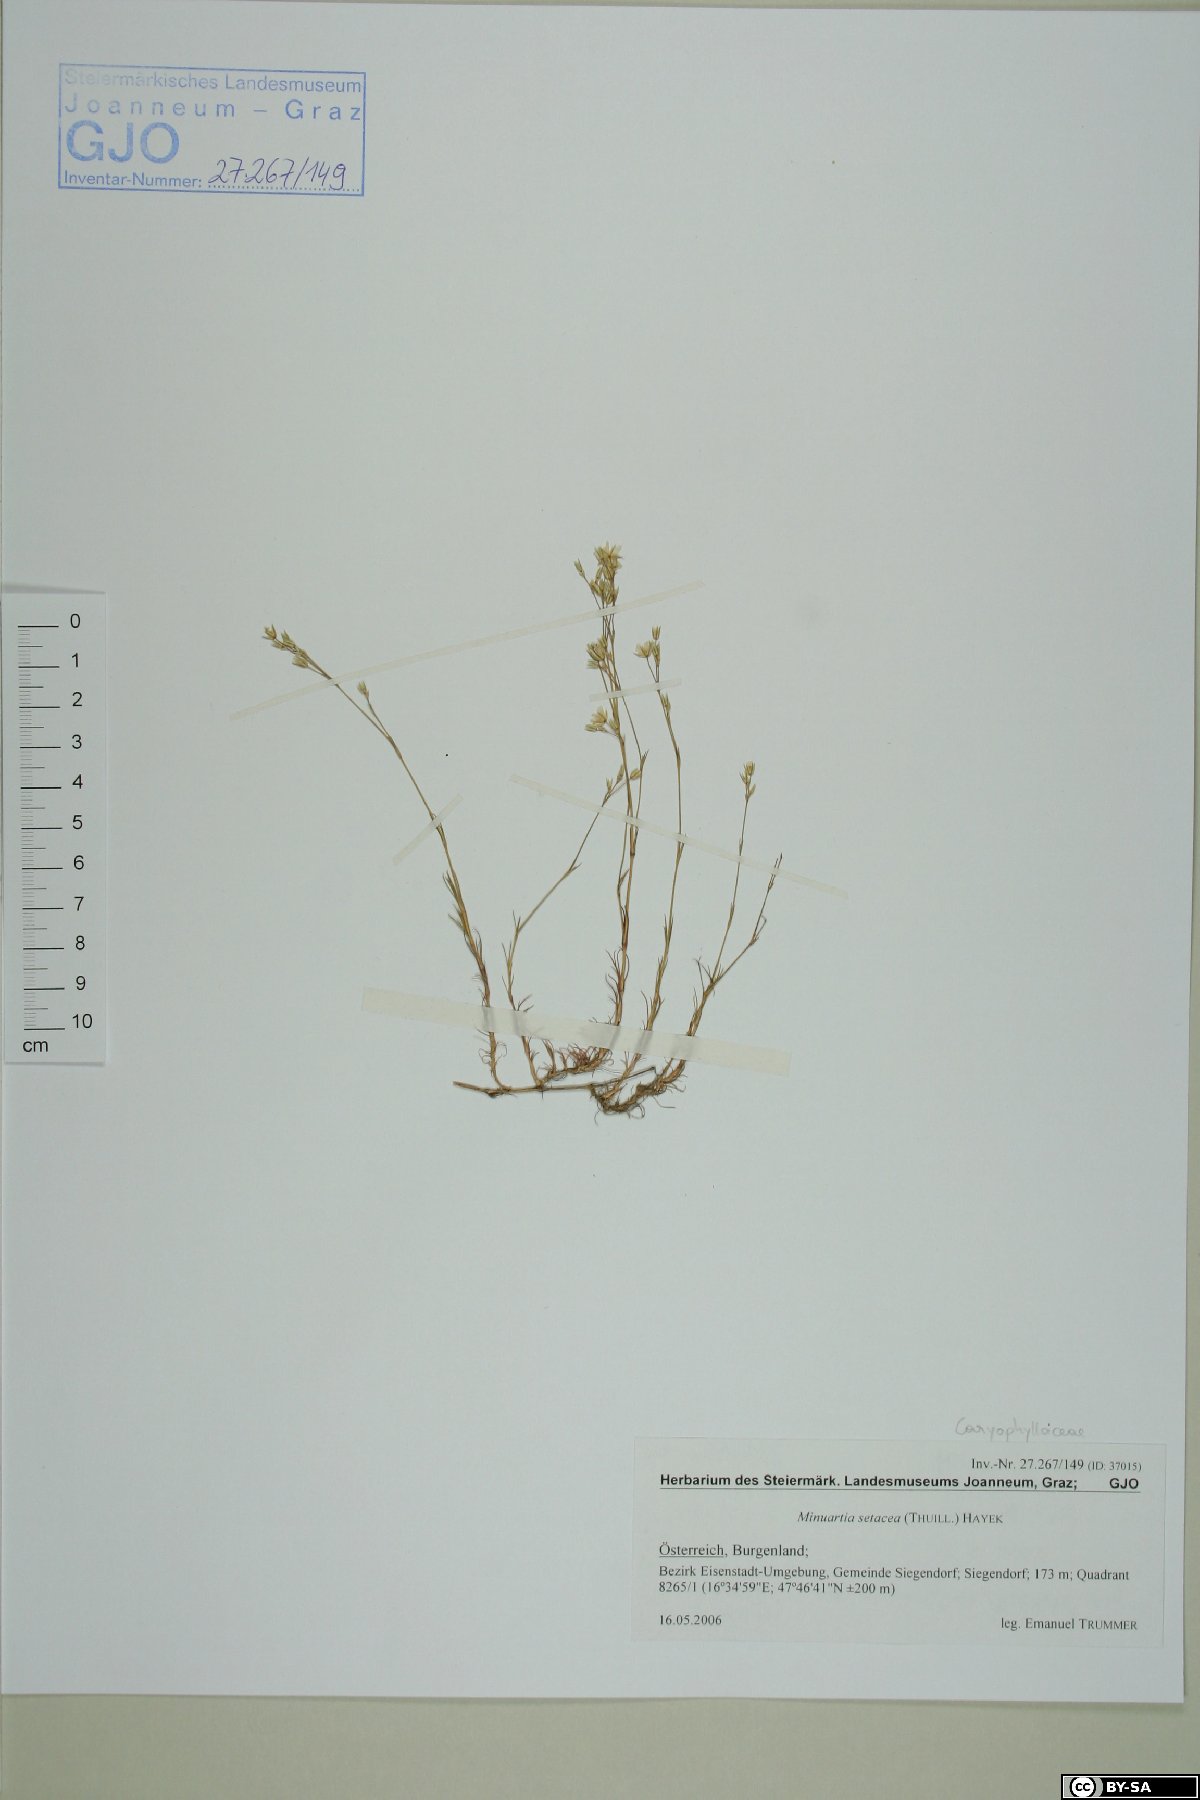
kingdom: Plantae
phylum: Tracheophyta
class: Magnoliopsida
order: Caryophyllales
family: Caryophyllaceae
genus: Minuartia
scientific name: Minuartia setacea
